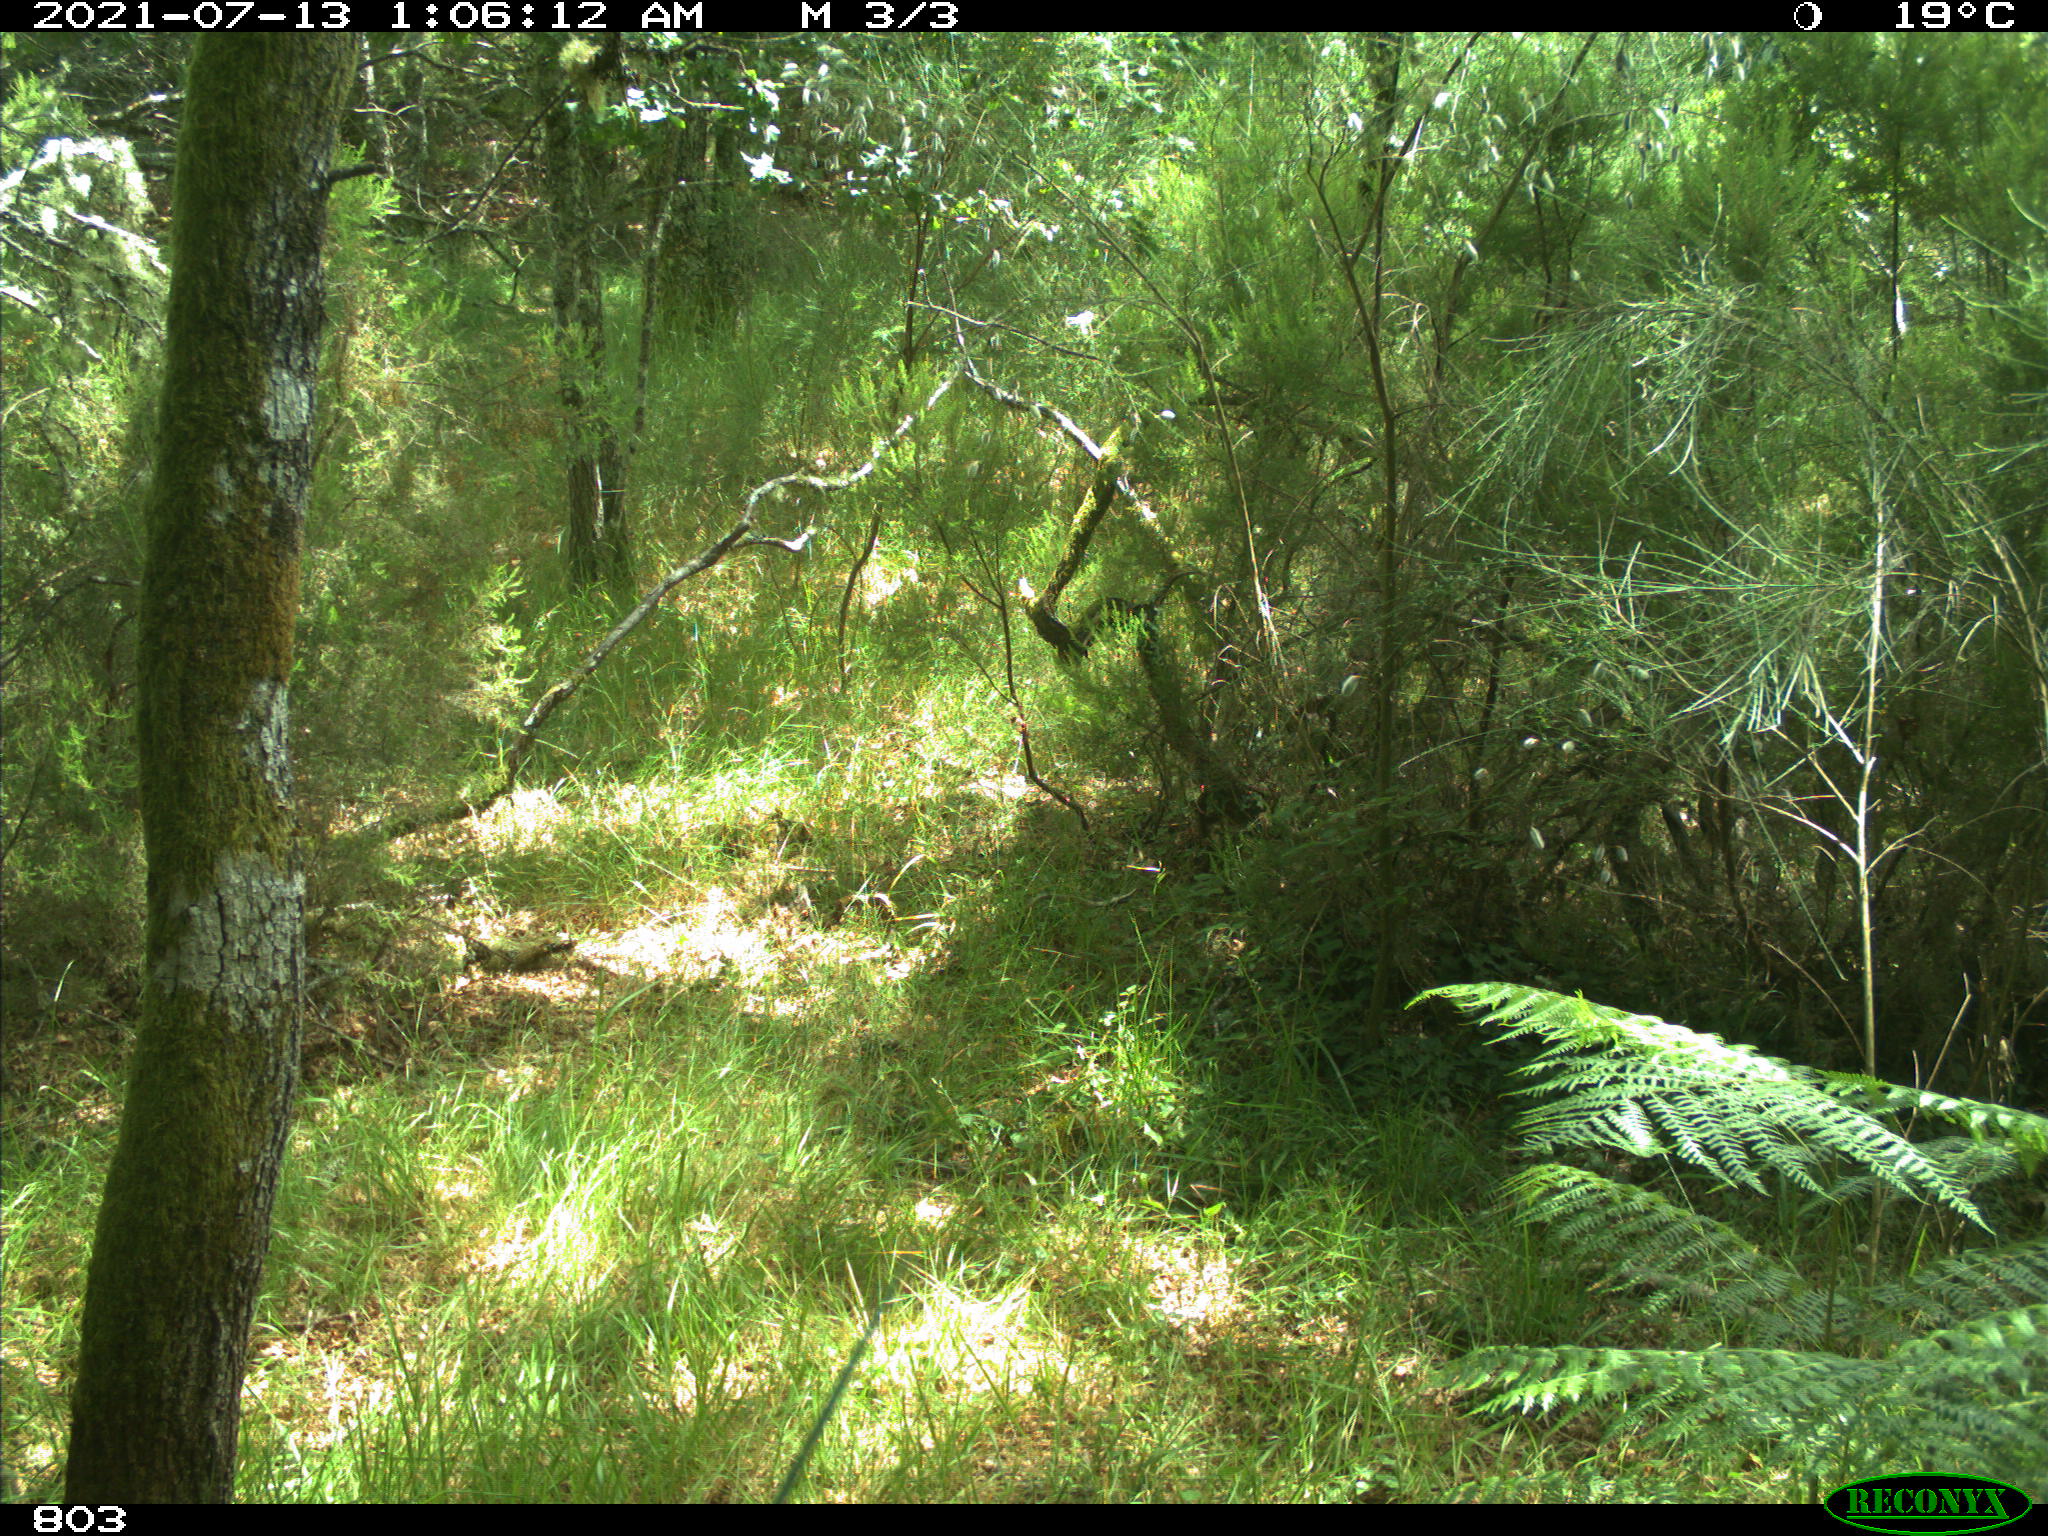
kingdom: Animalia
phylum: Chordata
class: Mammalia
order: Artiodactyla
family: Suidae
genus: Sus
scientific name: Sus scrofa
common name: Wild boar
